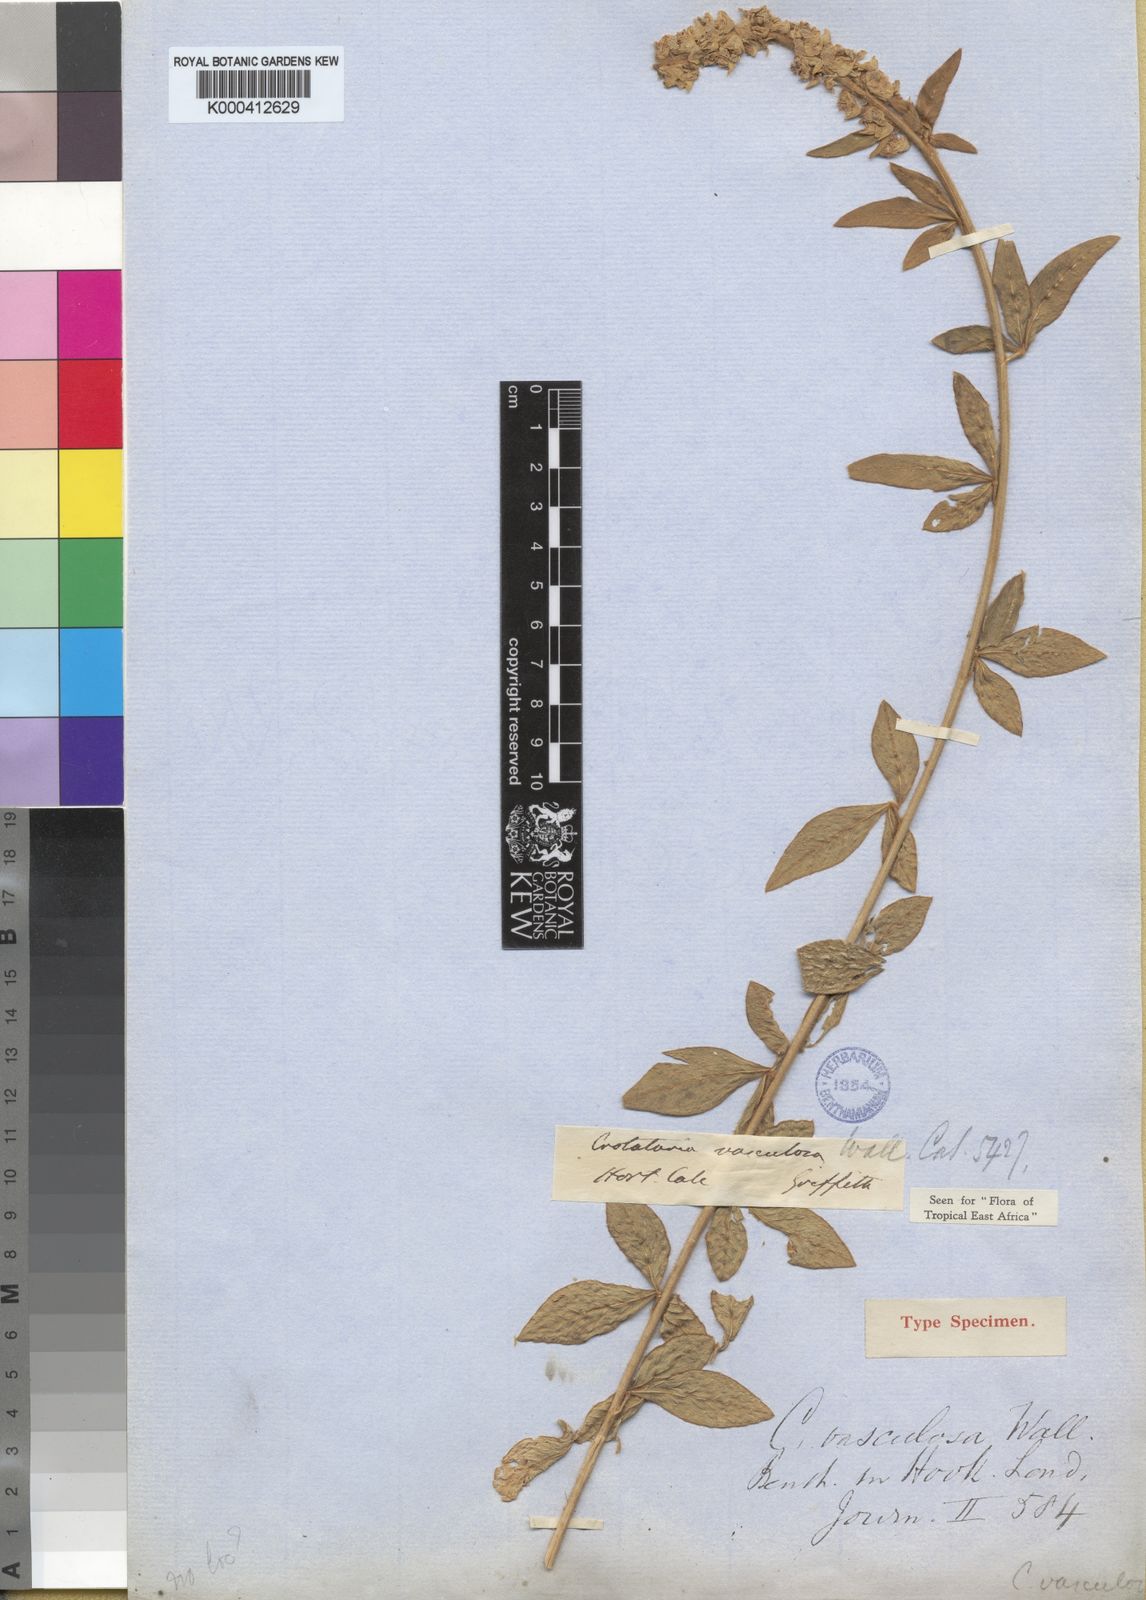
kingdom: Plantae
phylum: Tracheophyta
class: Magnoliopsida
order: Fabales
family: Fabaceae
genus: Crotalaria
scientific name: Crotalaria vasculosa
